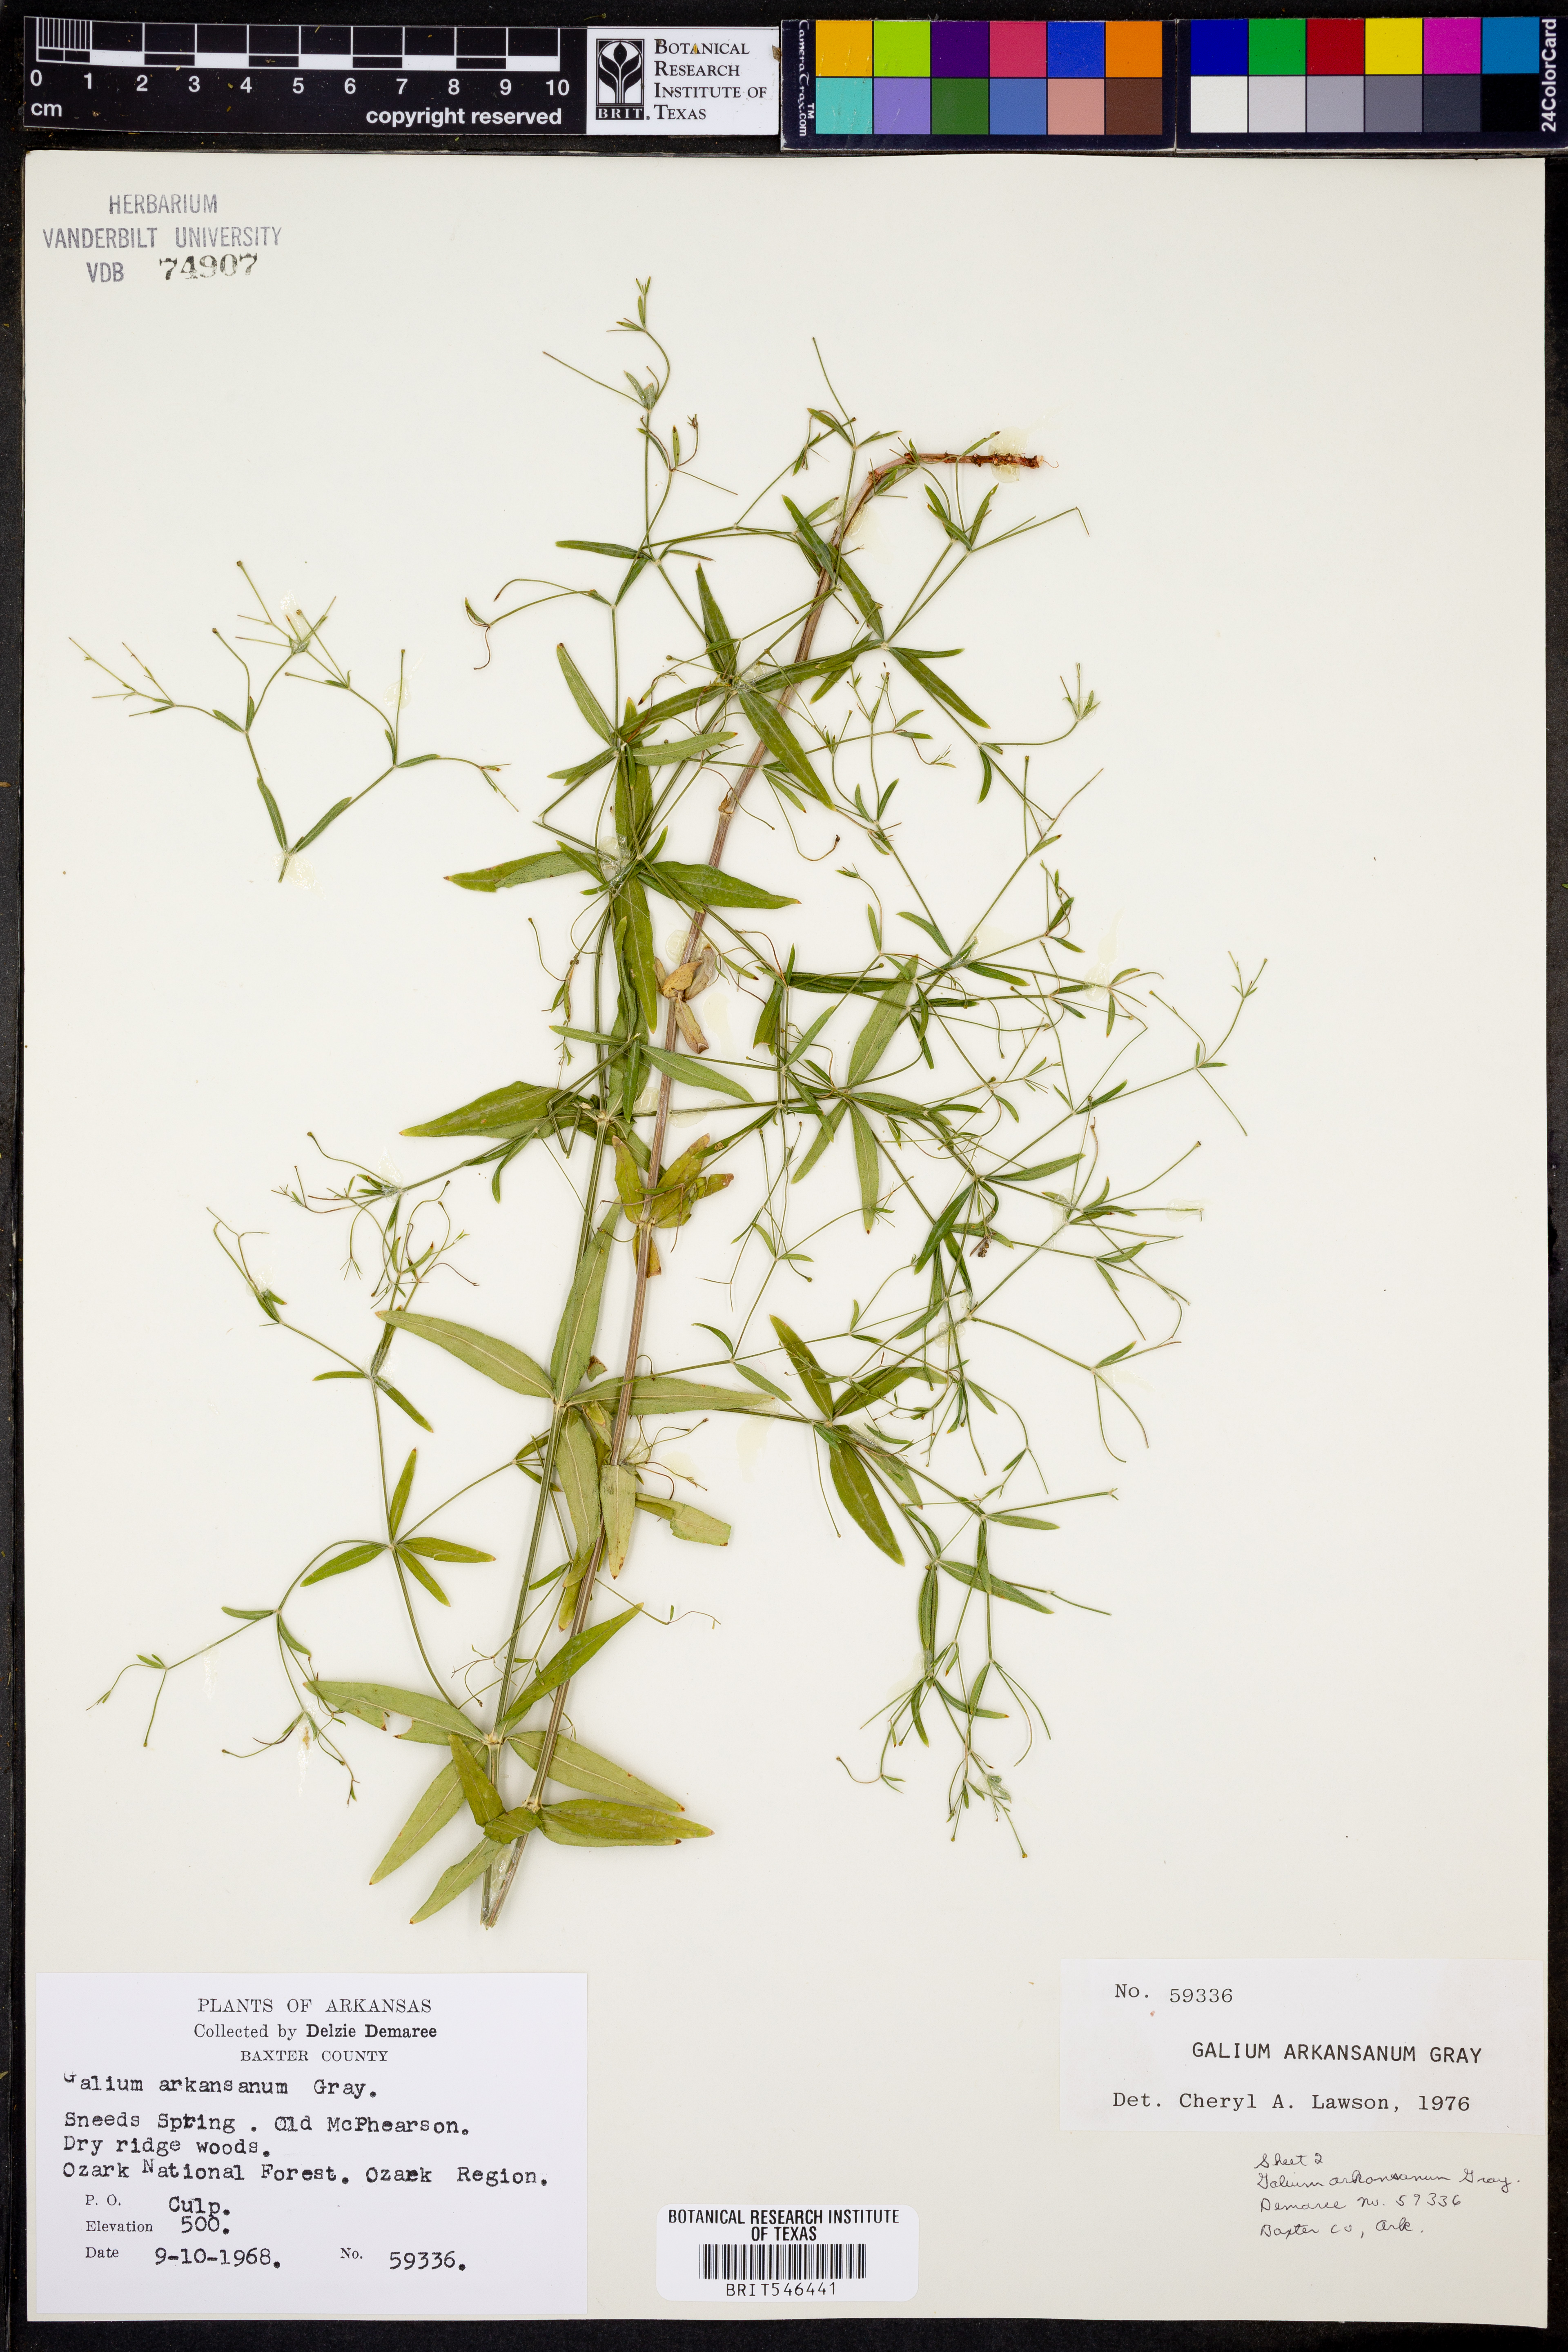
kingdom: Plantae
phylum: Tracheophyta
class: Magnoliopsida
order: Gentianales
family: Rubiaceae
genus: Galium
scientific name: Galium arkansanum
